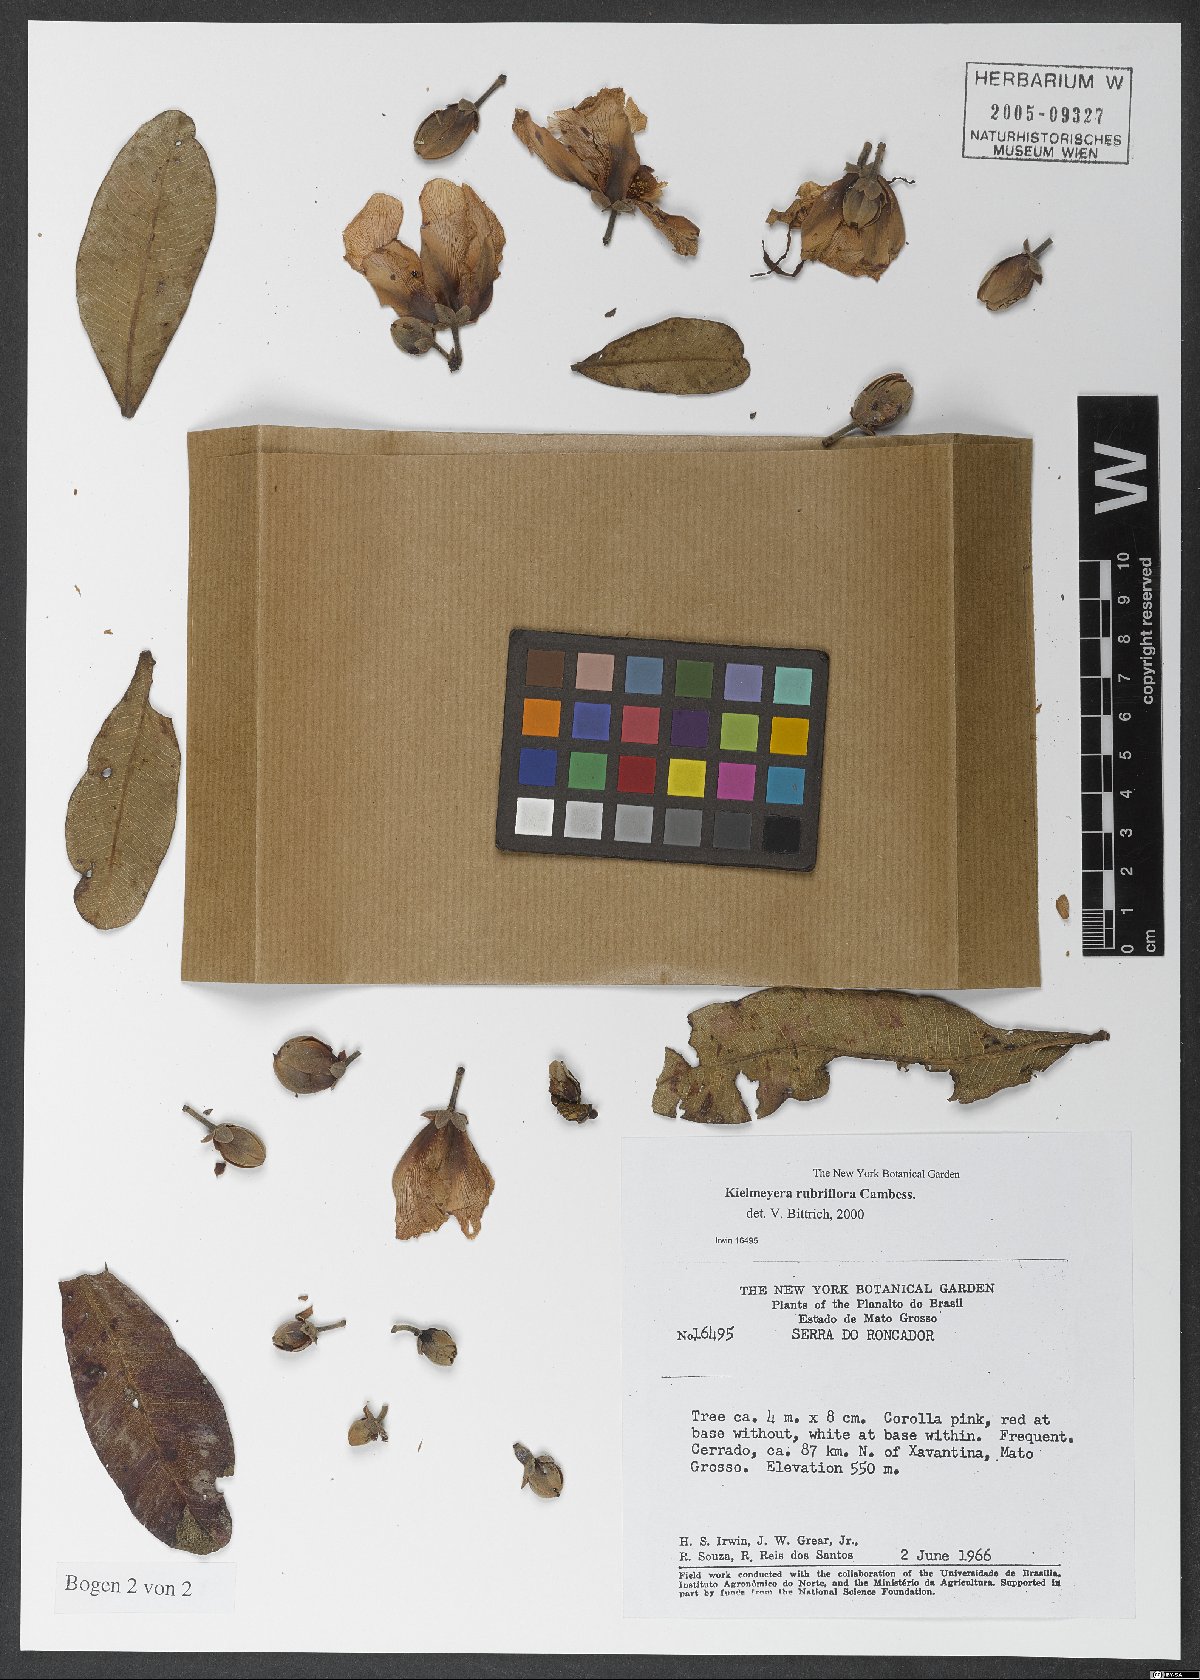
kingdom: Plantae
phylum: Tracheophyta
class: Magnoliopsida
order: Malpighiales
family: Calophyllaceae
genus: Kielmeyera
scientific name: Kielmeyera rubriflora
